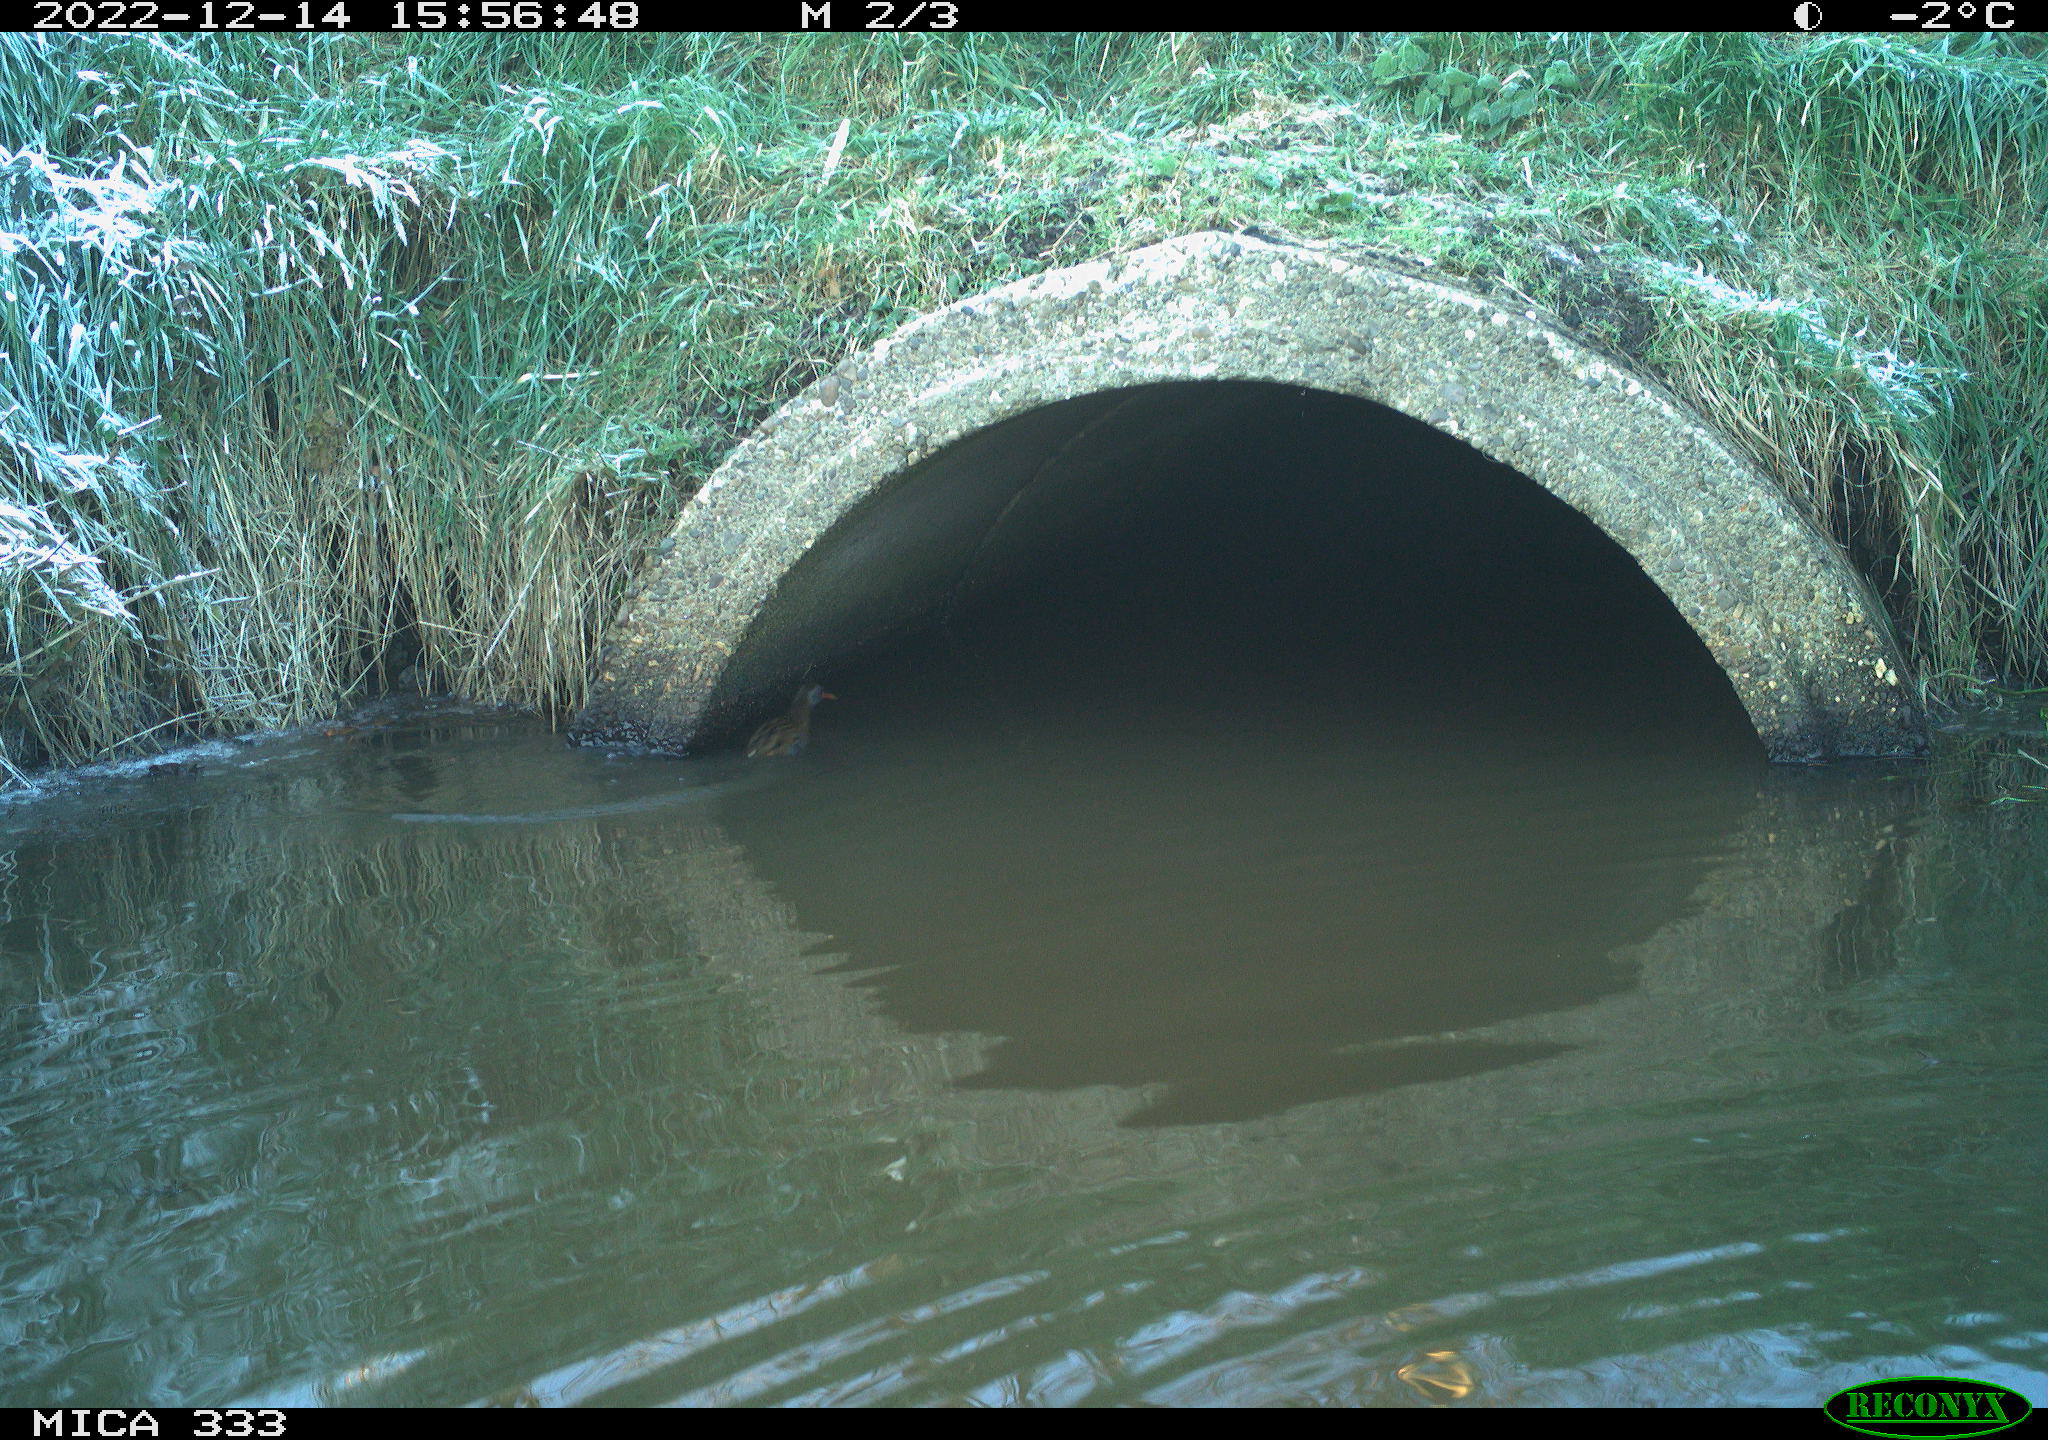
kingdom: Animalia
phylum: Chordata
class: Aves
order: Gruiformes
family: Rallidae
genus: Rallus
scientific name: Rallus aquaticus
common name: Water rail
